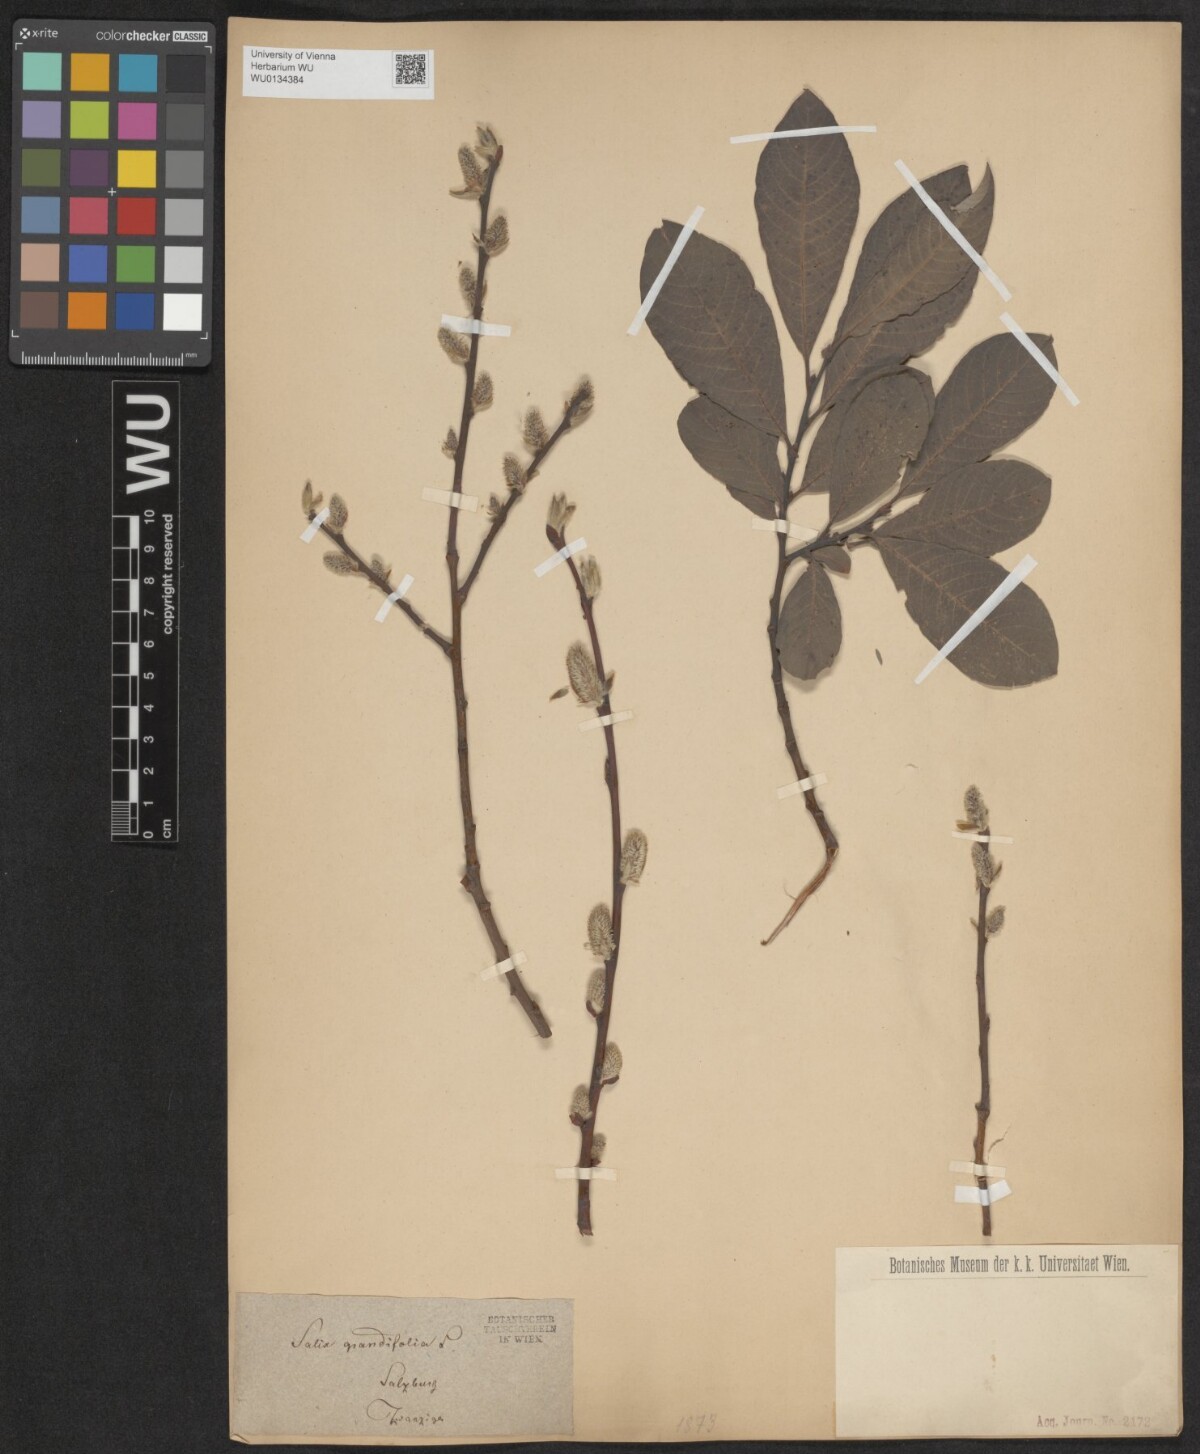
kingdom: Plantae
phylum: Tracheophyta
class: Magnoliopsida
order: Malpighiales
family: Salicaceae
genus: Salix
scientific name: Salix appendiculata
